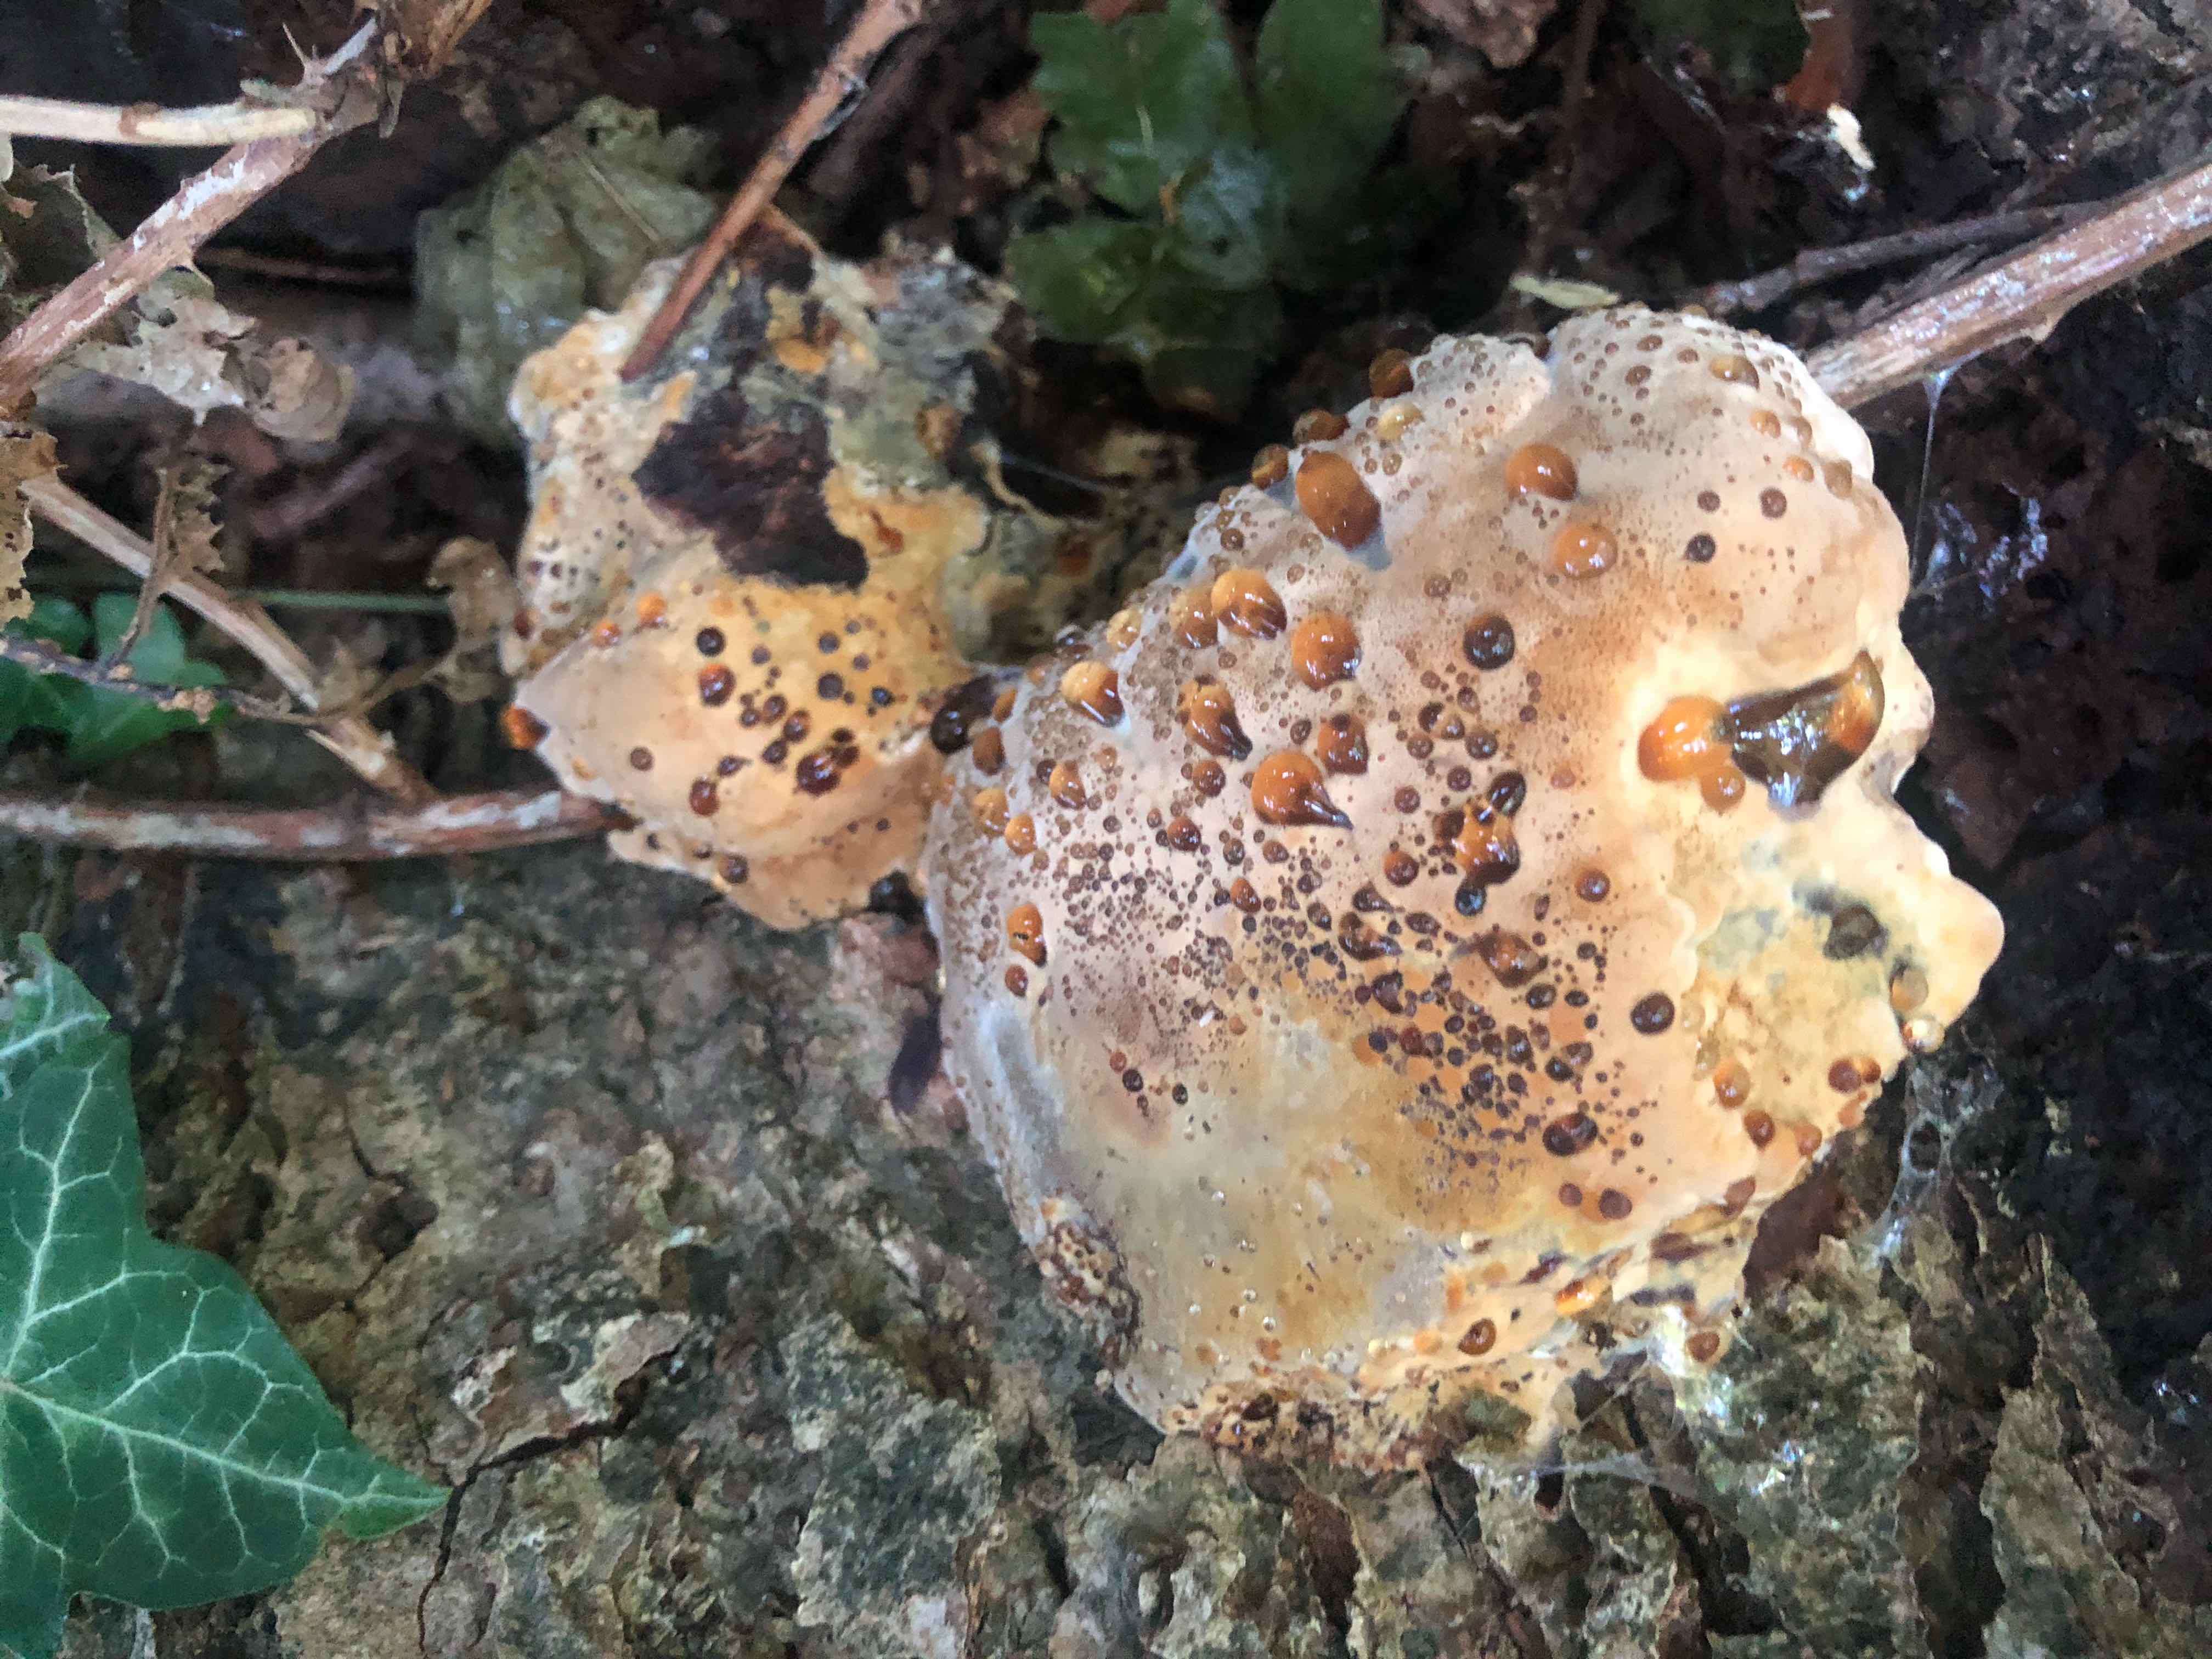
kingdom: Fungi
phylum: Basidiomycota
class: Agaricomycetes
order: Hymenochaetales
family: Hymenochaetaceae
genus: Pseudoinonotus
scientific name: Pseudoinonotus dryadeus
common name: ege-spejlporesvamp
